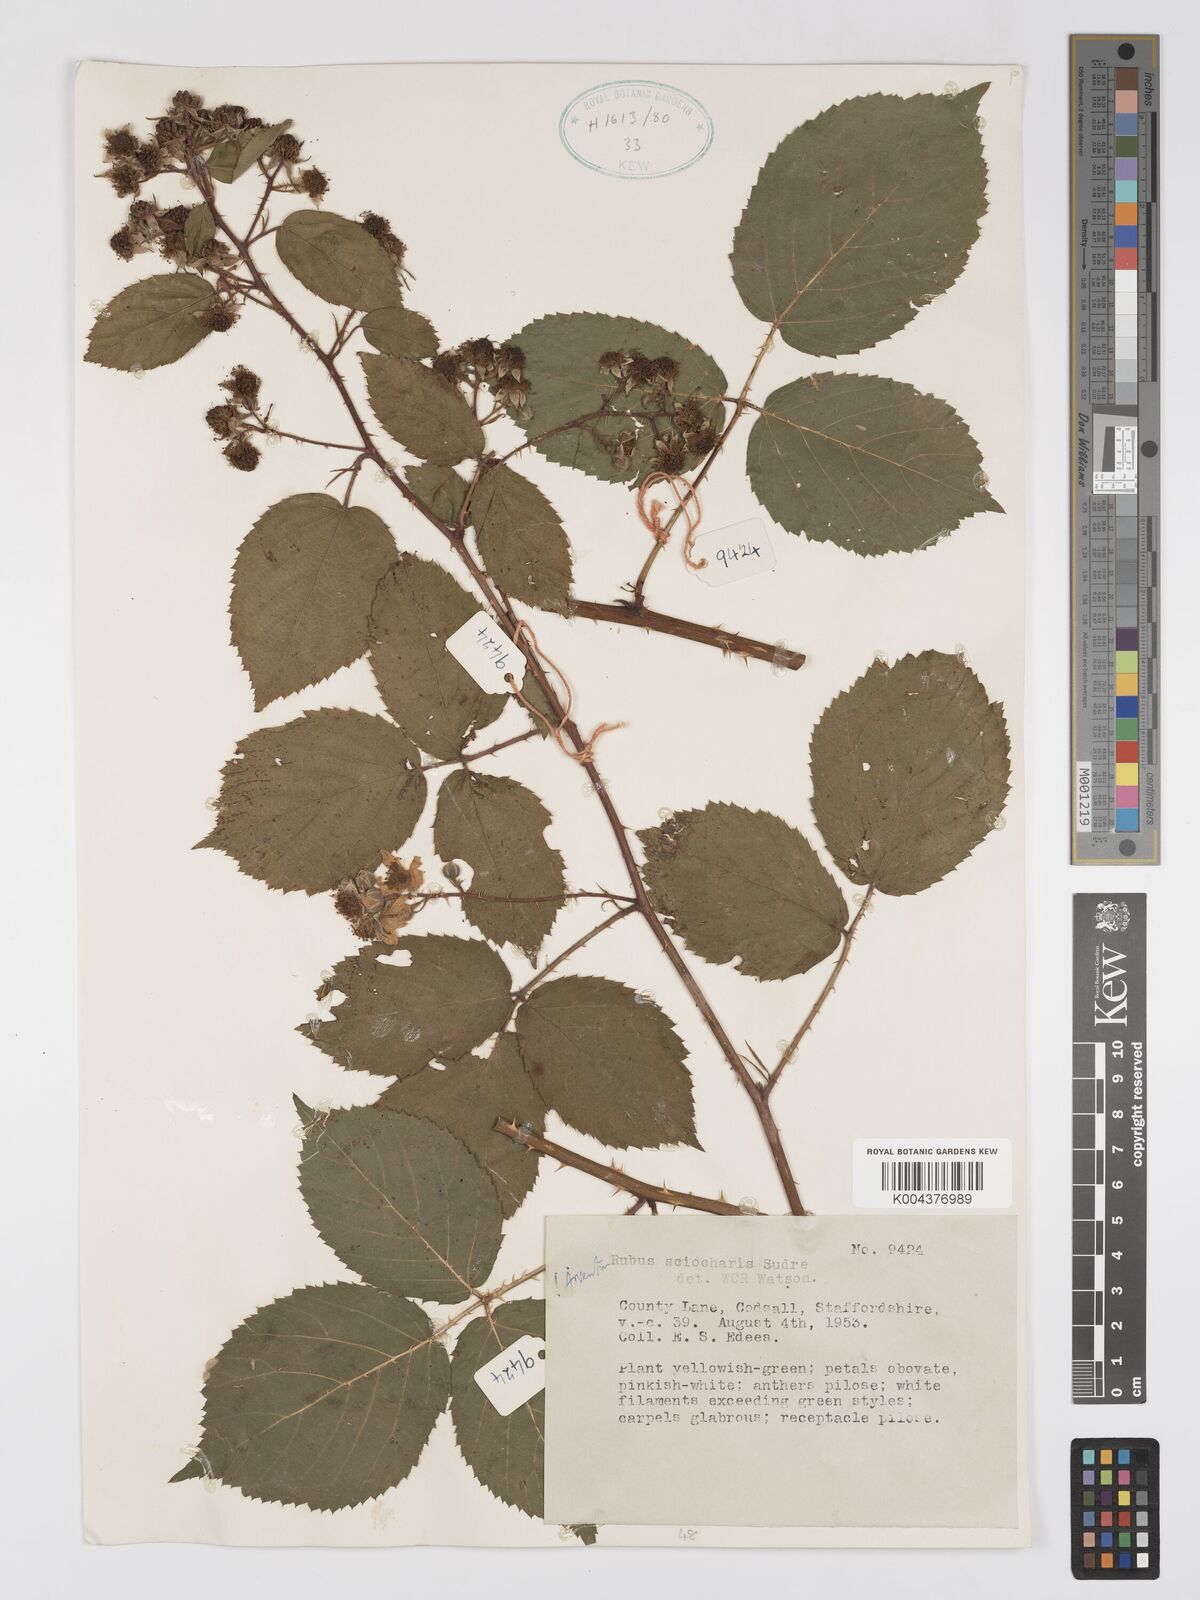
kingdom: Plantae
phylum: Tracheophyta
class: Magnoliopsida
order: Rosales
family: Rosaceae
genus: Rubus
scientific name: Rubus sciocharis
